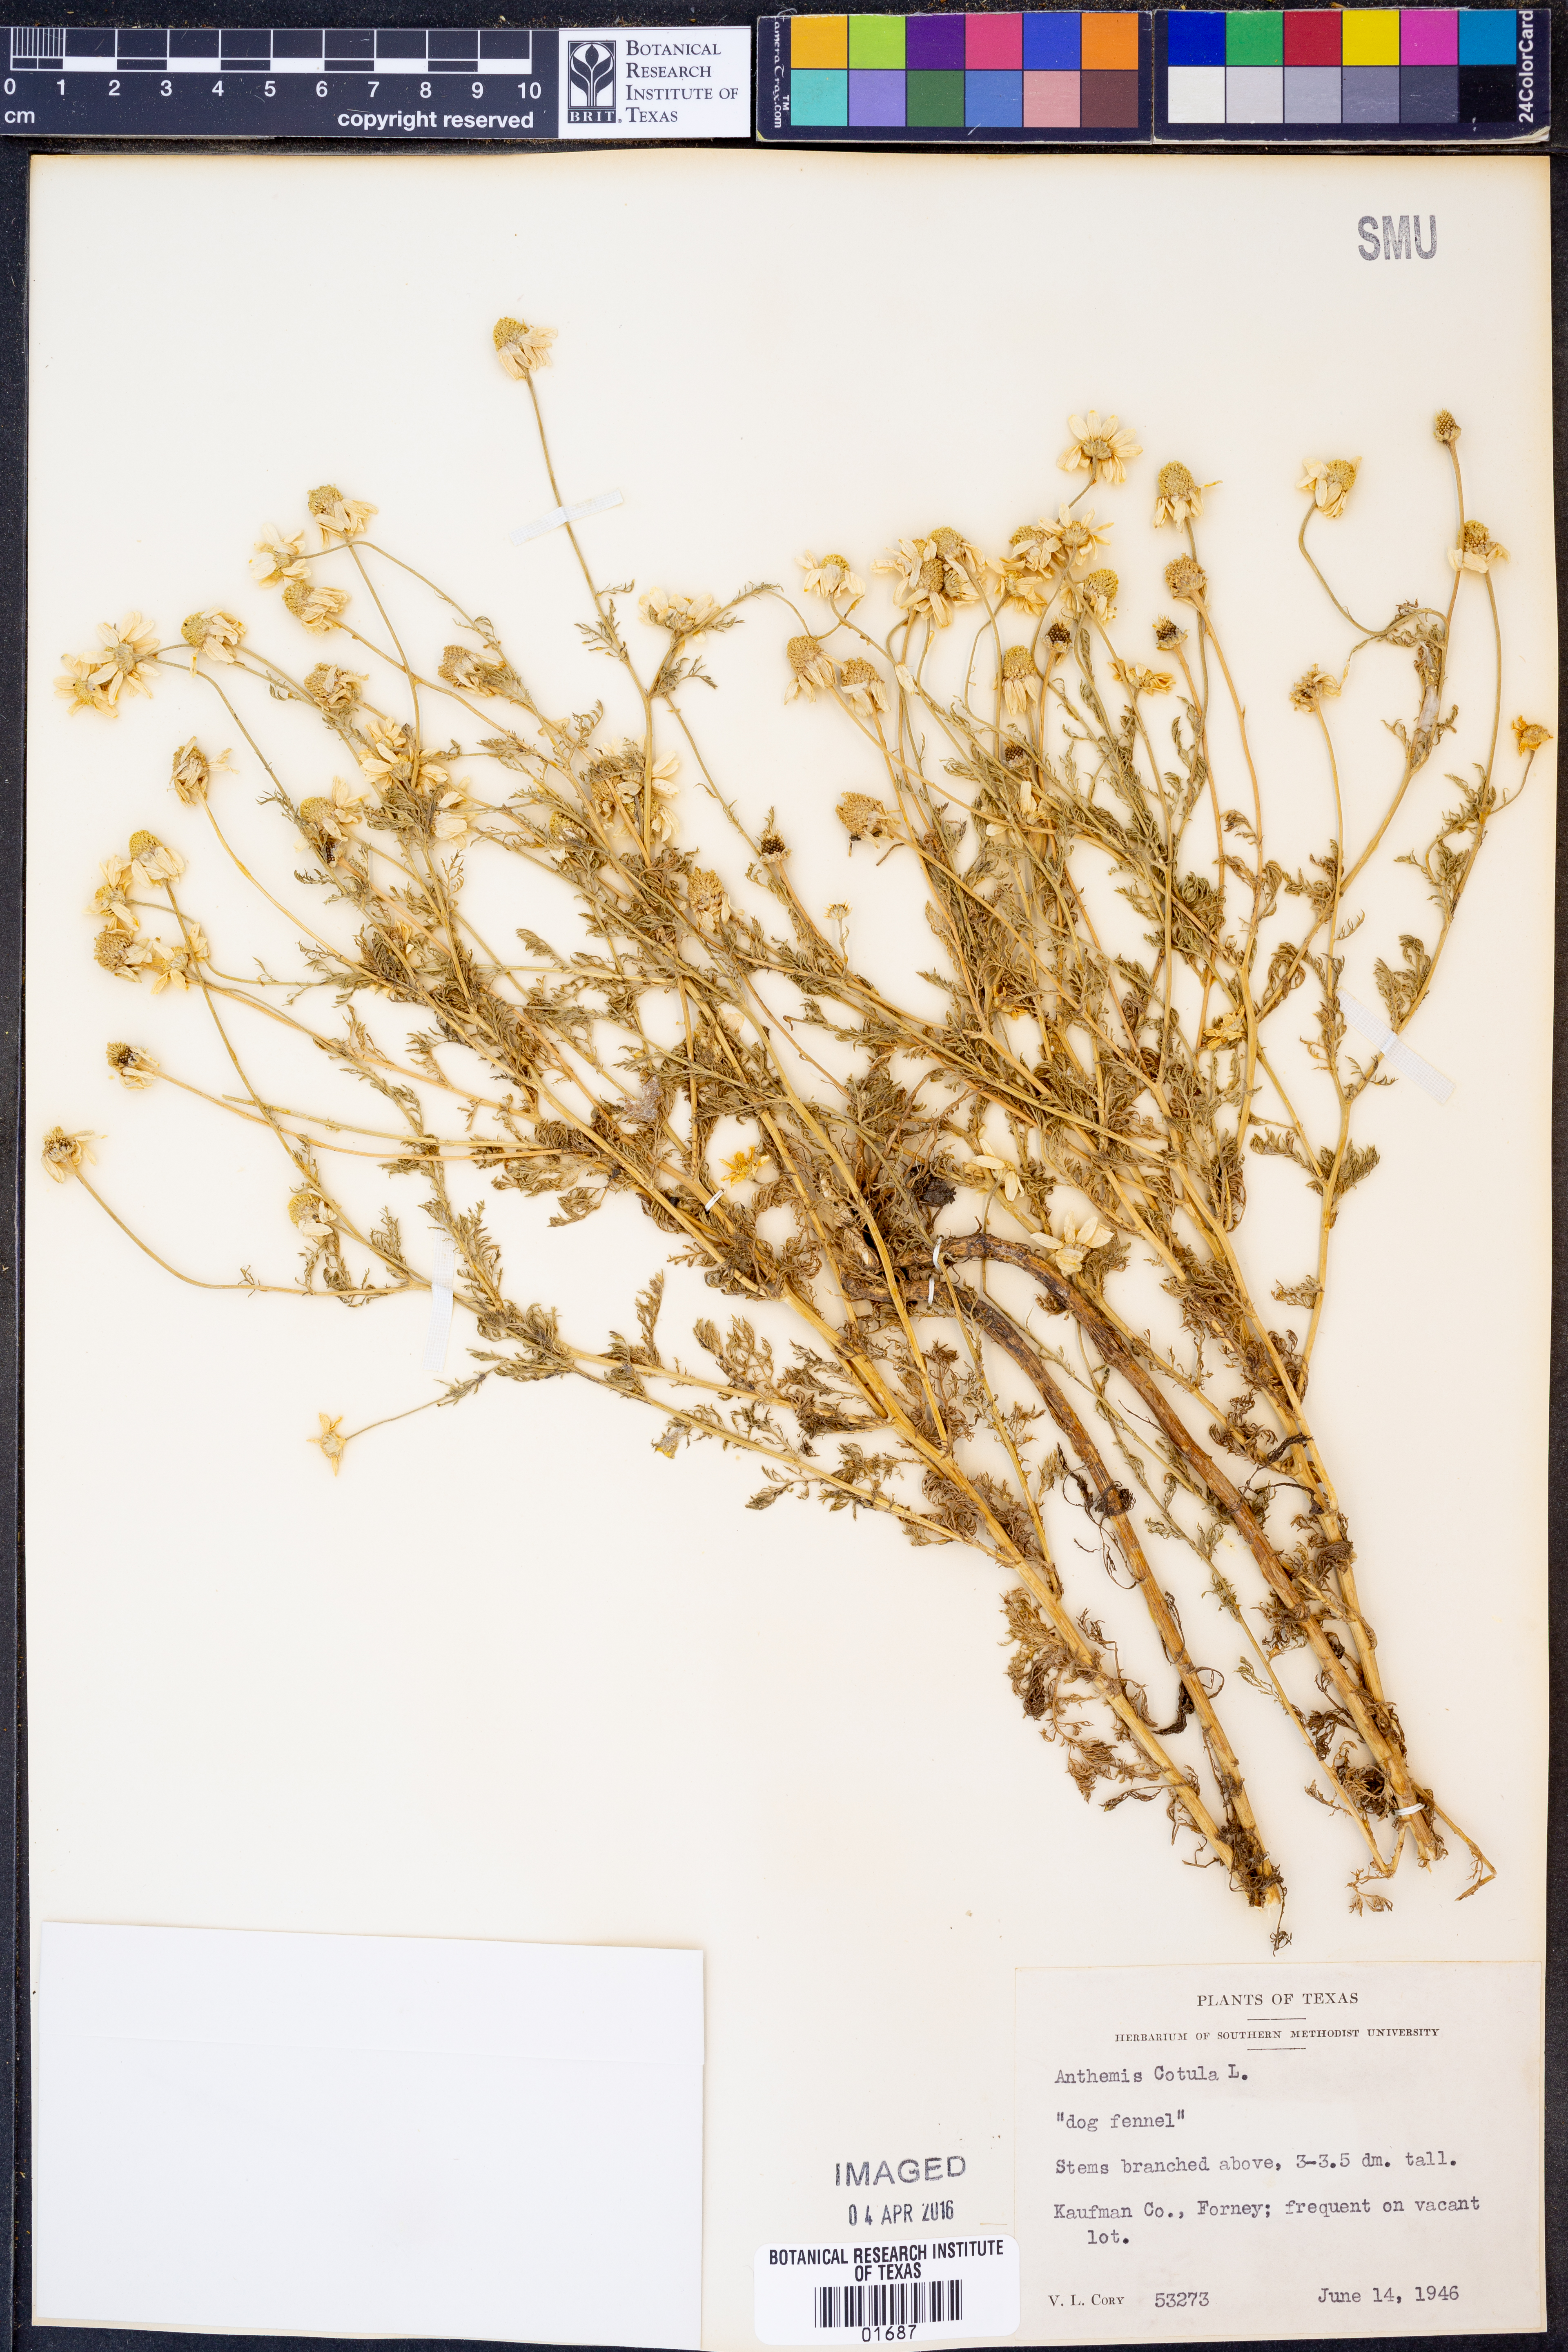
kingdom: Plantae
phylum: Tracheophyta
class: Magnoliopsida
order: Asterales
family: Asteraceae
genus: Anthemis
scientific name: Anthemis cotula
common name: Stinking chamomile
